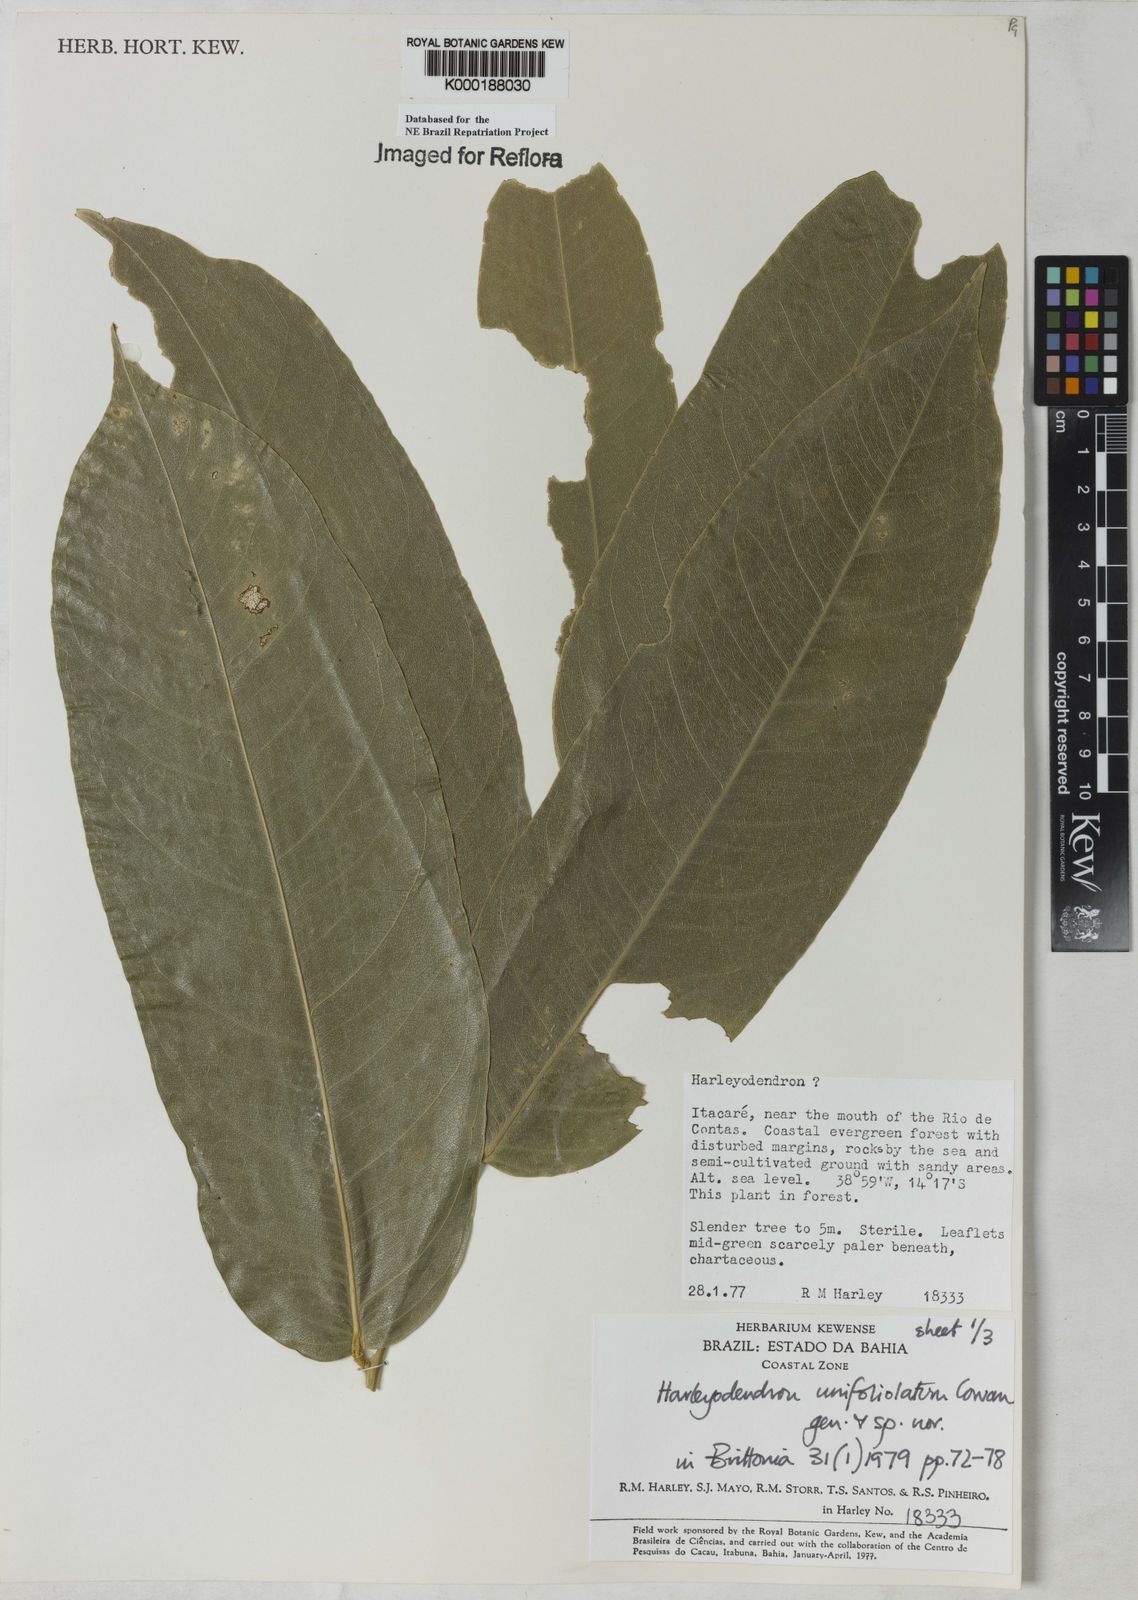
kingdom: Plantae
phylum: Tracheophyta
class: Magnoliopsida
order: Fabales
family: Fabaceae
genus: Harleyodendron
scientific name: Harleyodendron unifoliolatum
